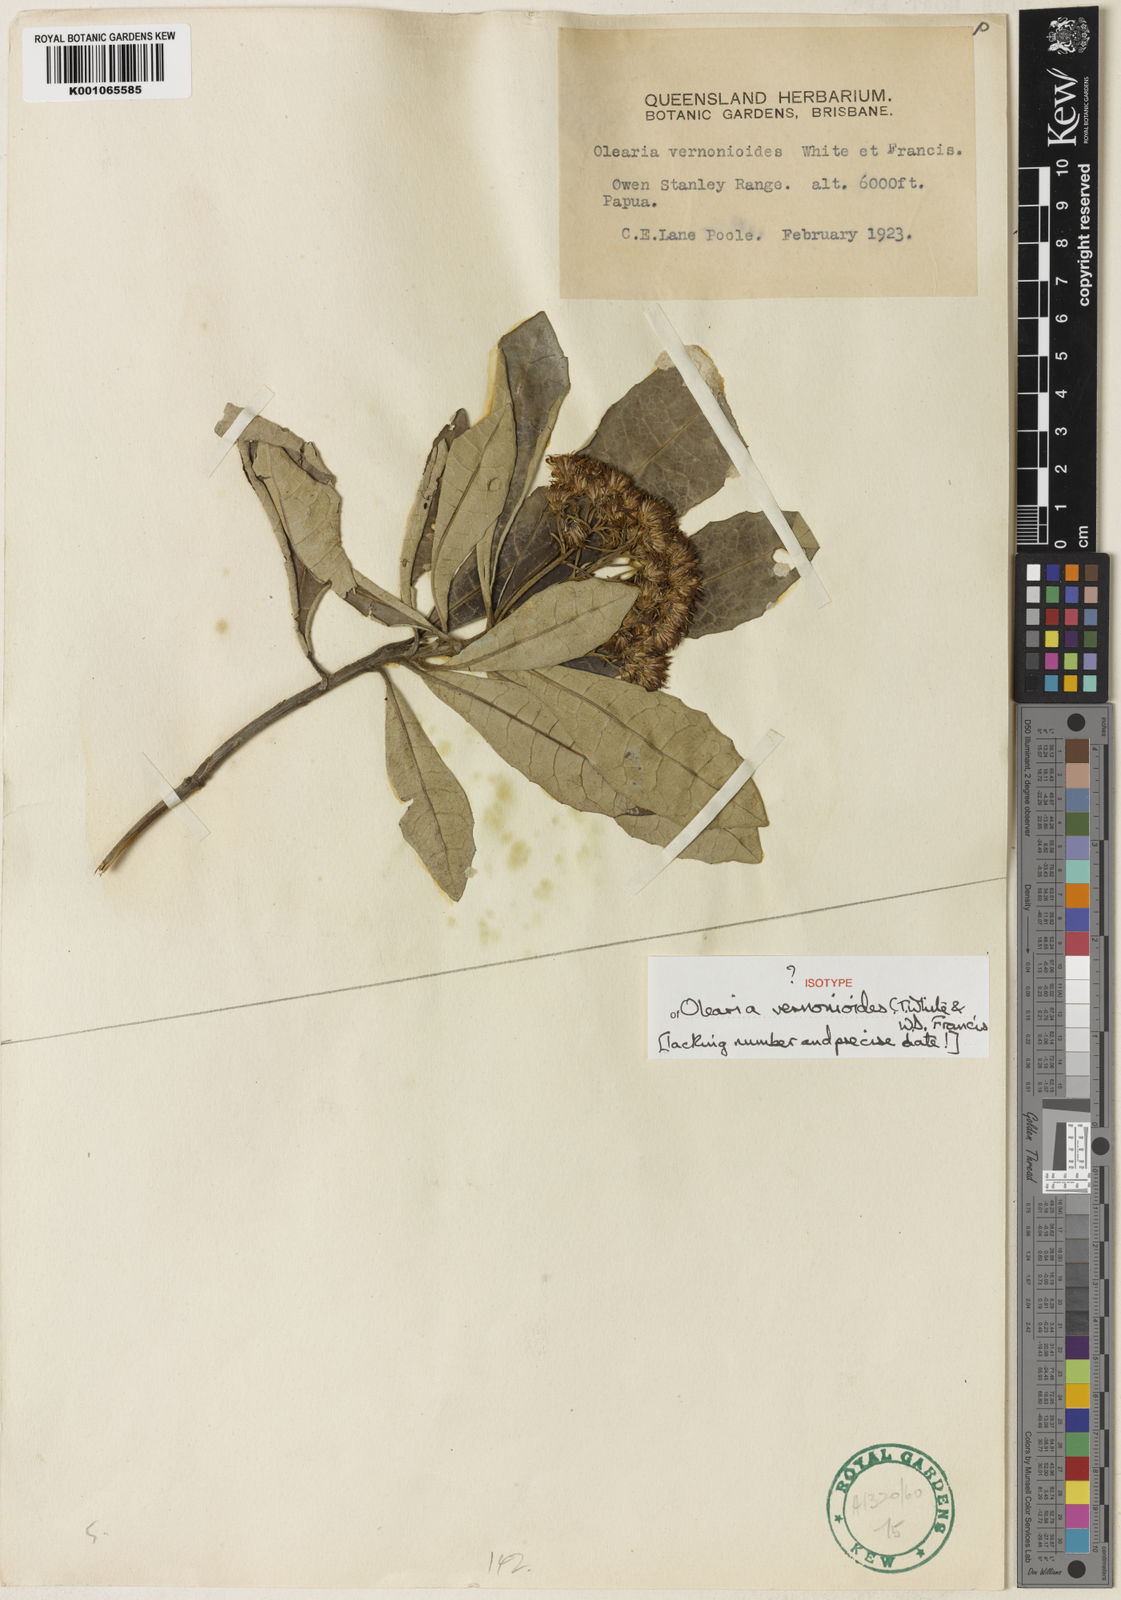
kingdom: Plantae
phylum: Tracheophyta
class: Magnoliopsida
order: Asterales
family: Asteraceae
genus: Olearia
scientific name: Olearia vernonioides
